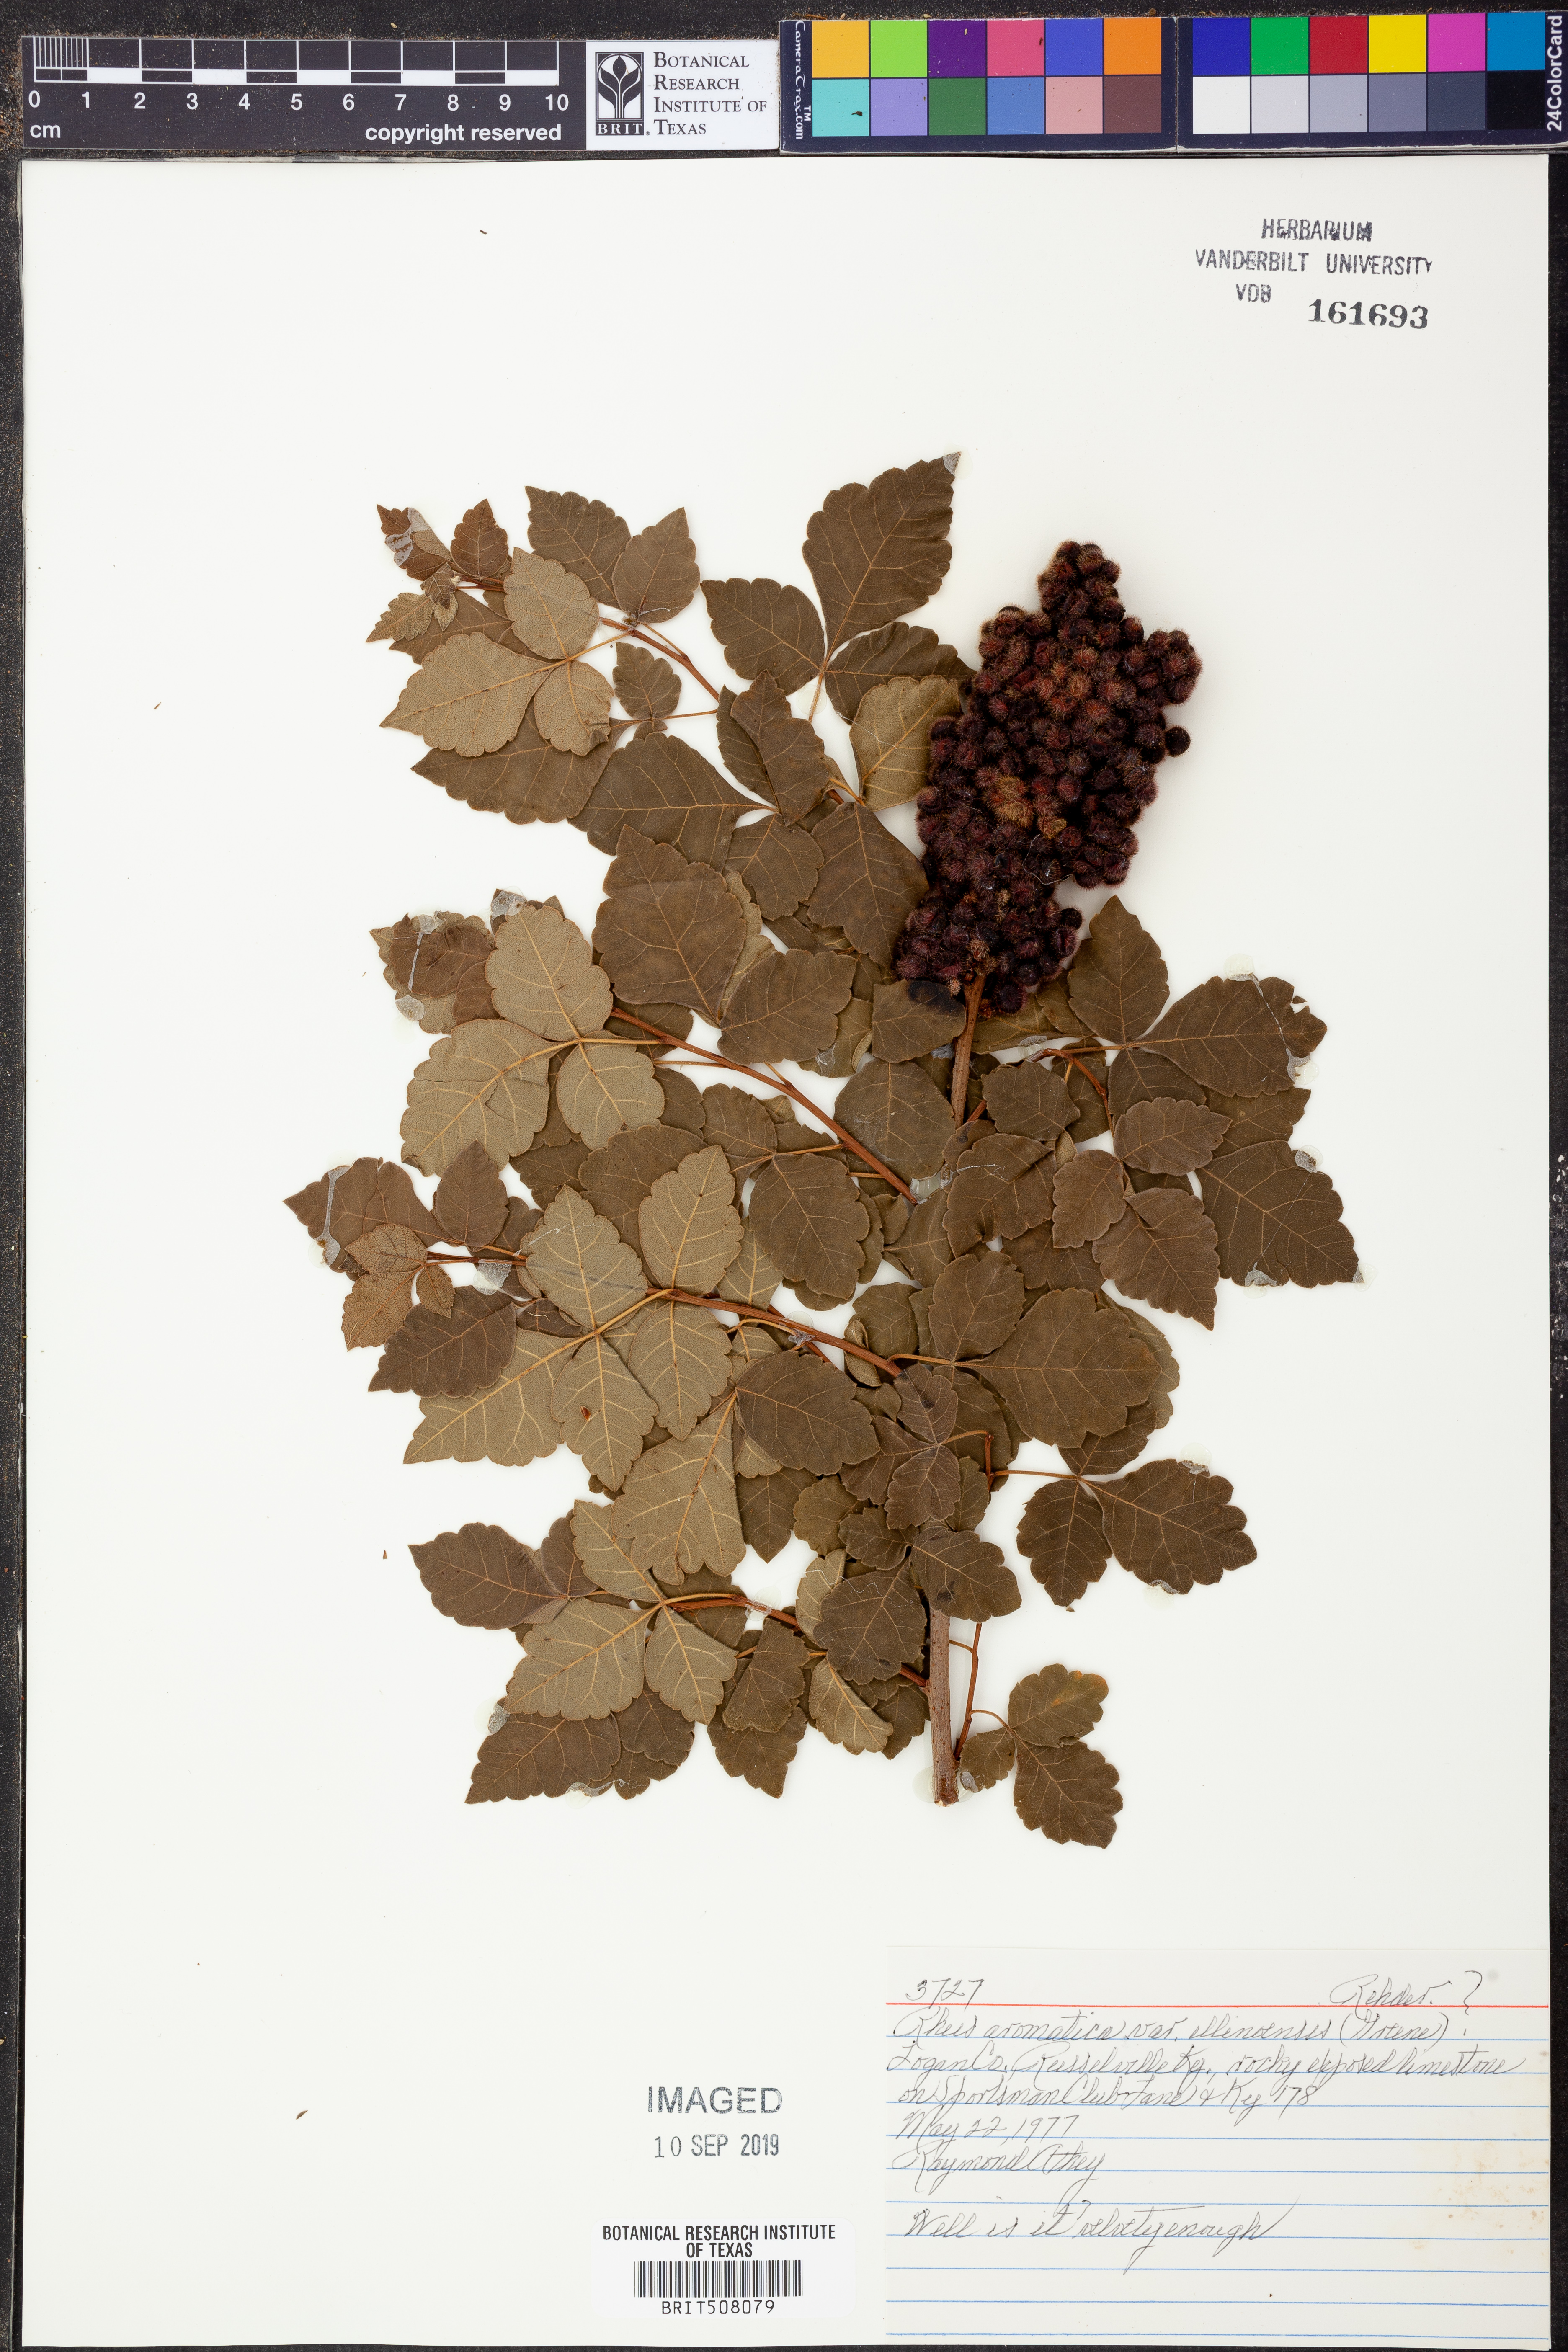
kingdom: Plantae
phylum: Tracheophyta
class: Magnoliopsida
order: Sapindales
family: Anacardiaceae
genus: Rhus
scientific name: Rhus aromatica
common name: Aromatic sumac
